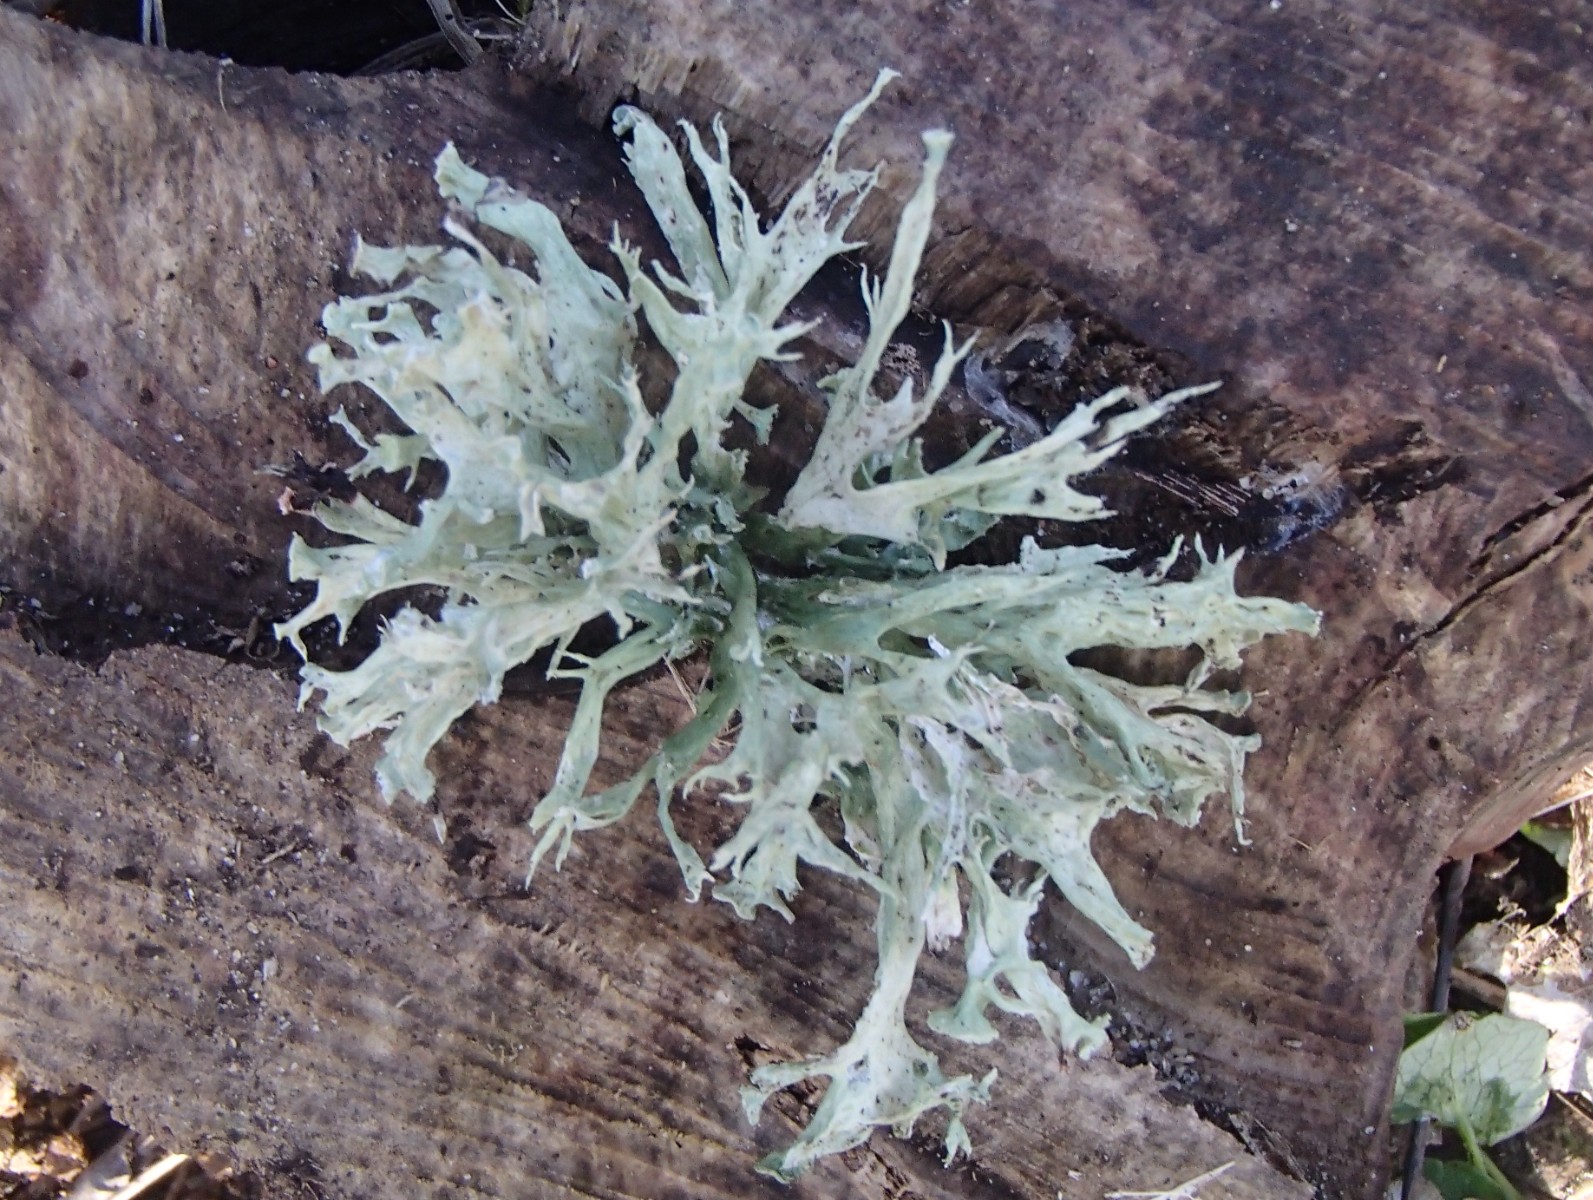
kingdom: Fungi
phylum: Ascomycota
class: Lecanoromycetes
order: Lecanorales
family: Ramalinaceae
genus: Ramalina
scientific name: Ramalina fastigiata
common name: tue-grenlav
